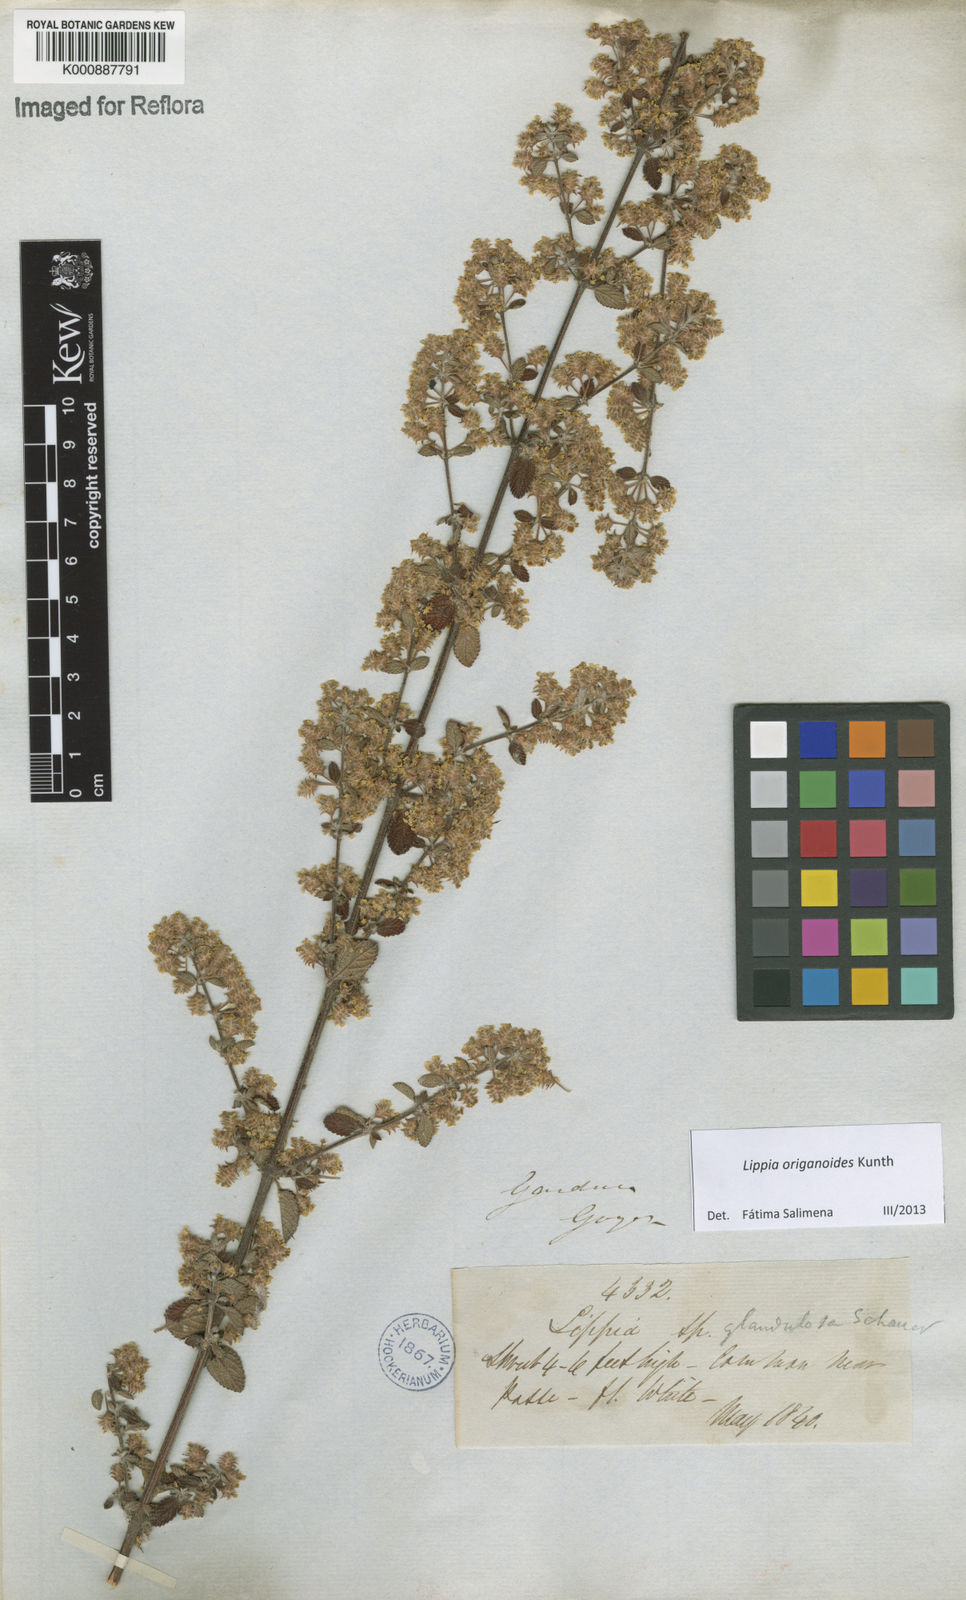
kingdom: Plantae
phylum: Tracheophyta
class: Magnoliopsida
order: Lamiales
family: Verbenaceae
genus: Lippia
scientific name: Lippia origanoides
